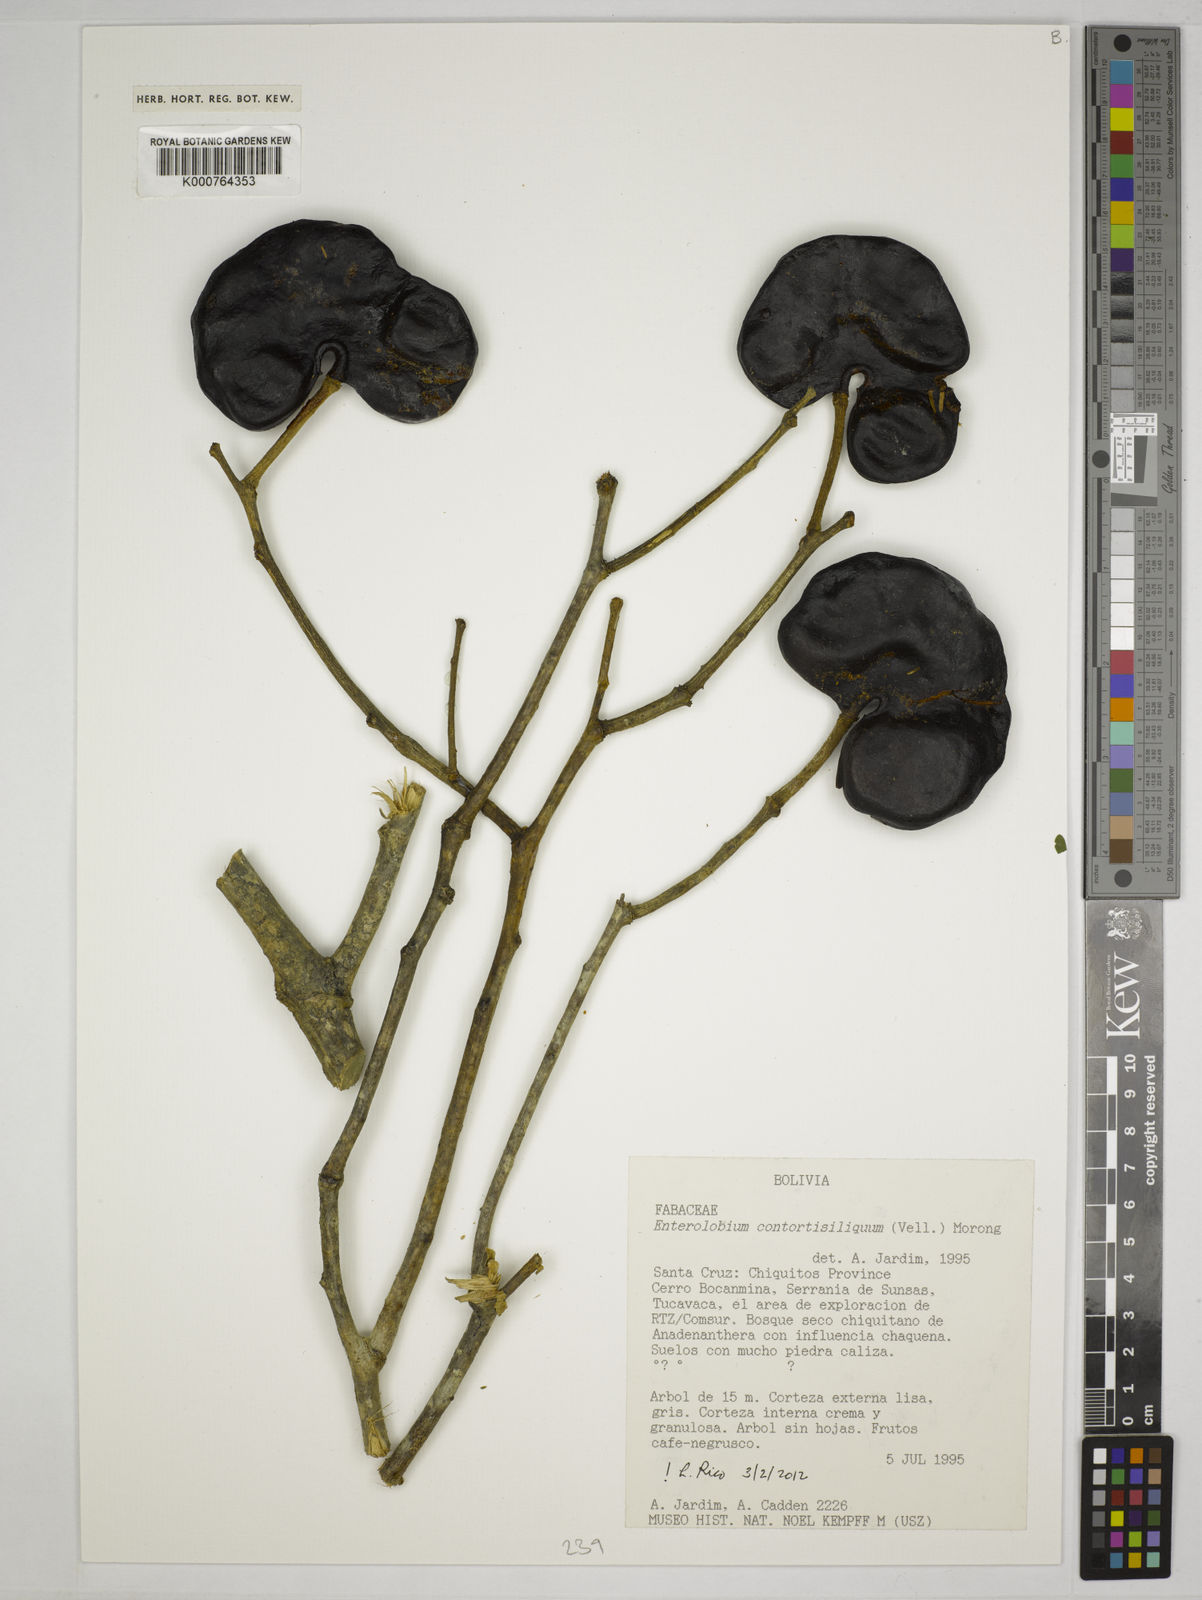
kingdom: Plantae
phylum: Tracheophyta
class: Magnoliopsida
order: Fabales
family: Fabaceae
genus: Enterolobium
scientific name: Enterolobium
